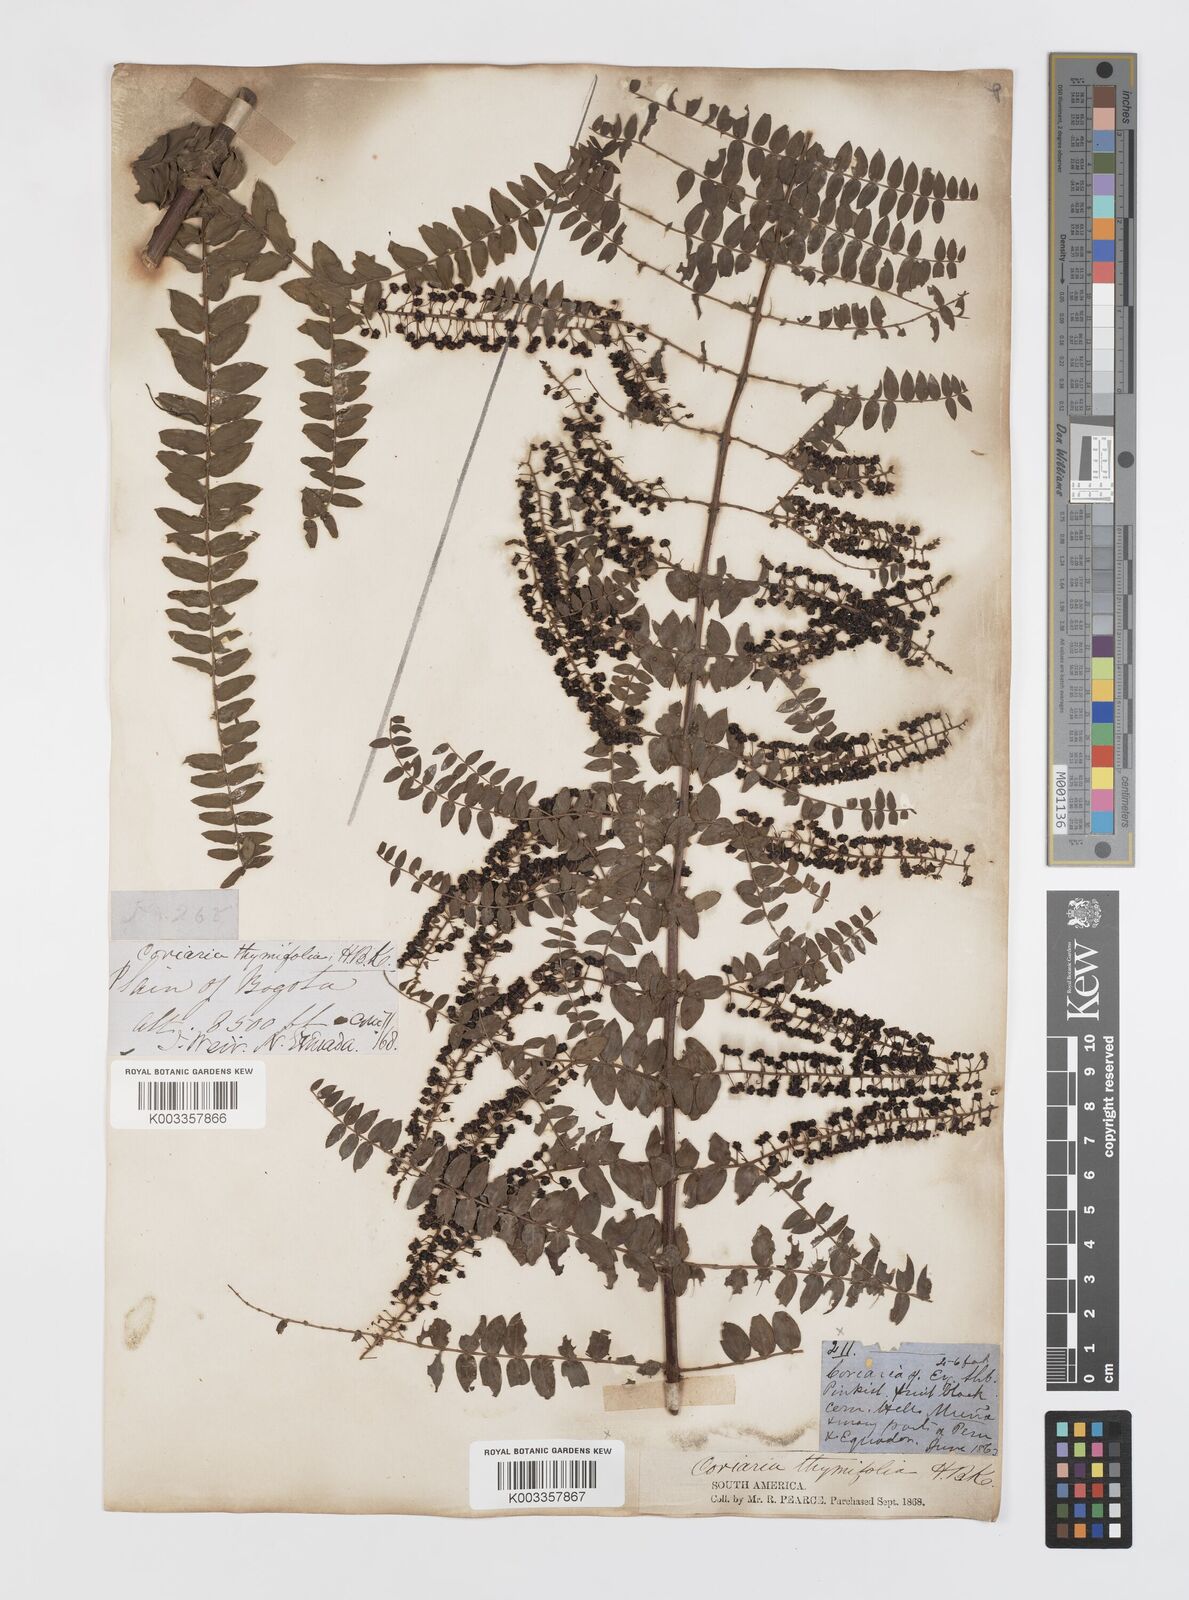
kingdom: Plantae
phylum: Tracheophyta
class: Magnoliopsida
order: Cucurbitales
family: Coriariaceae
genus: Coriaria
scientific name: Coriaria microphylla
